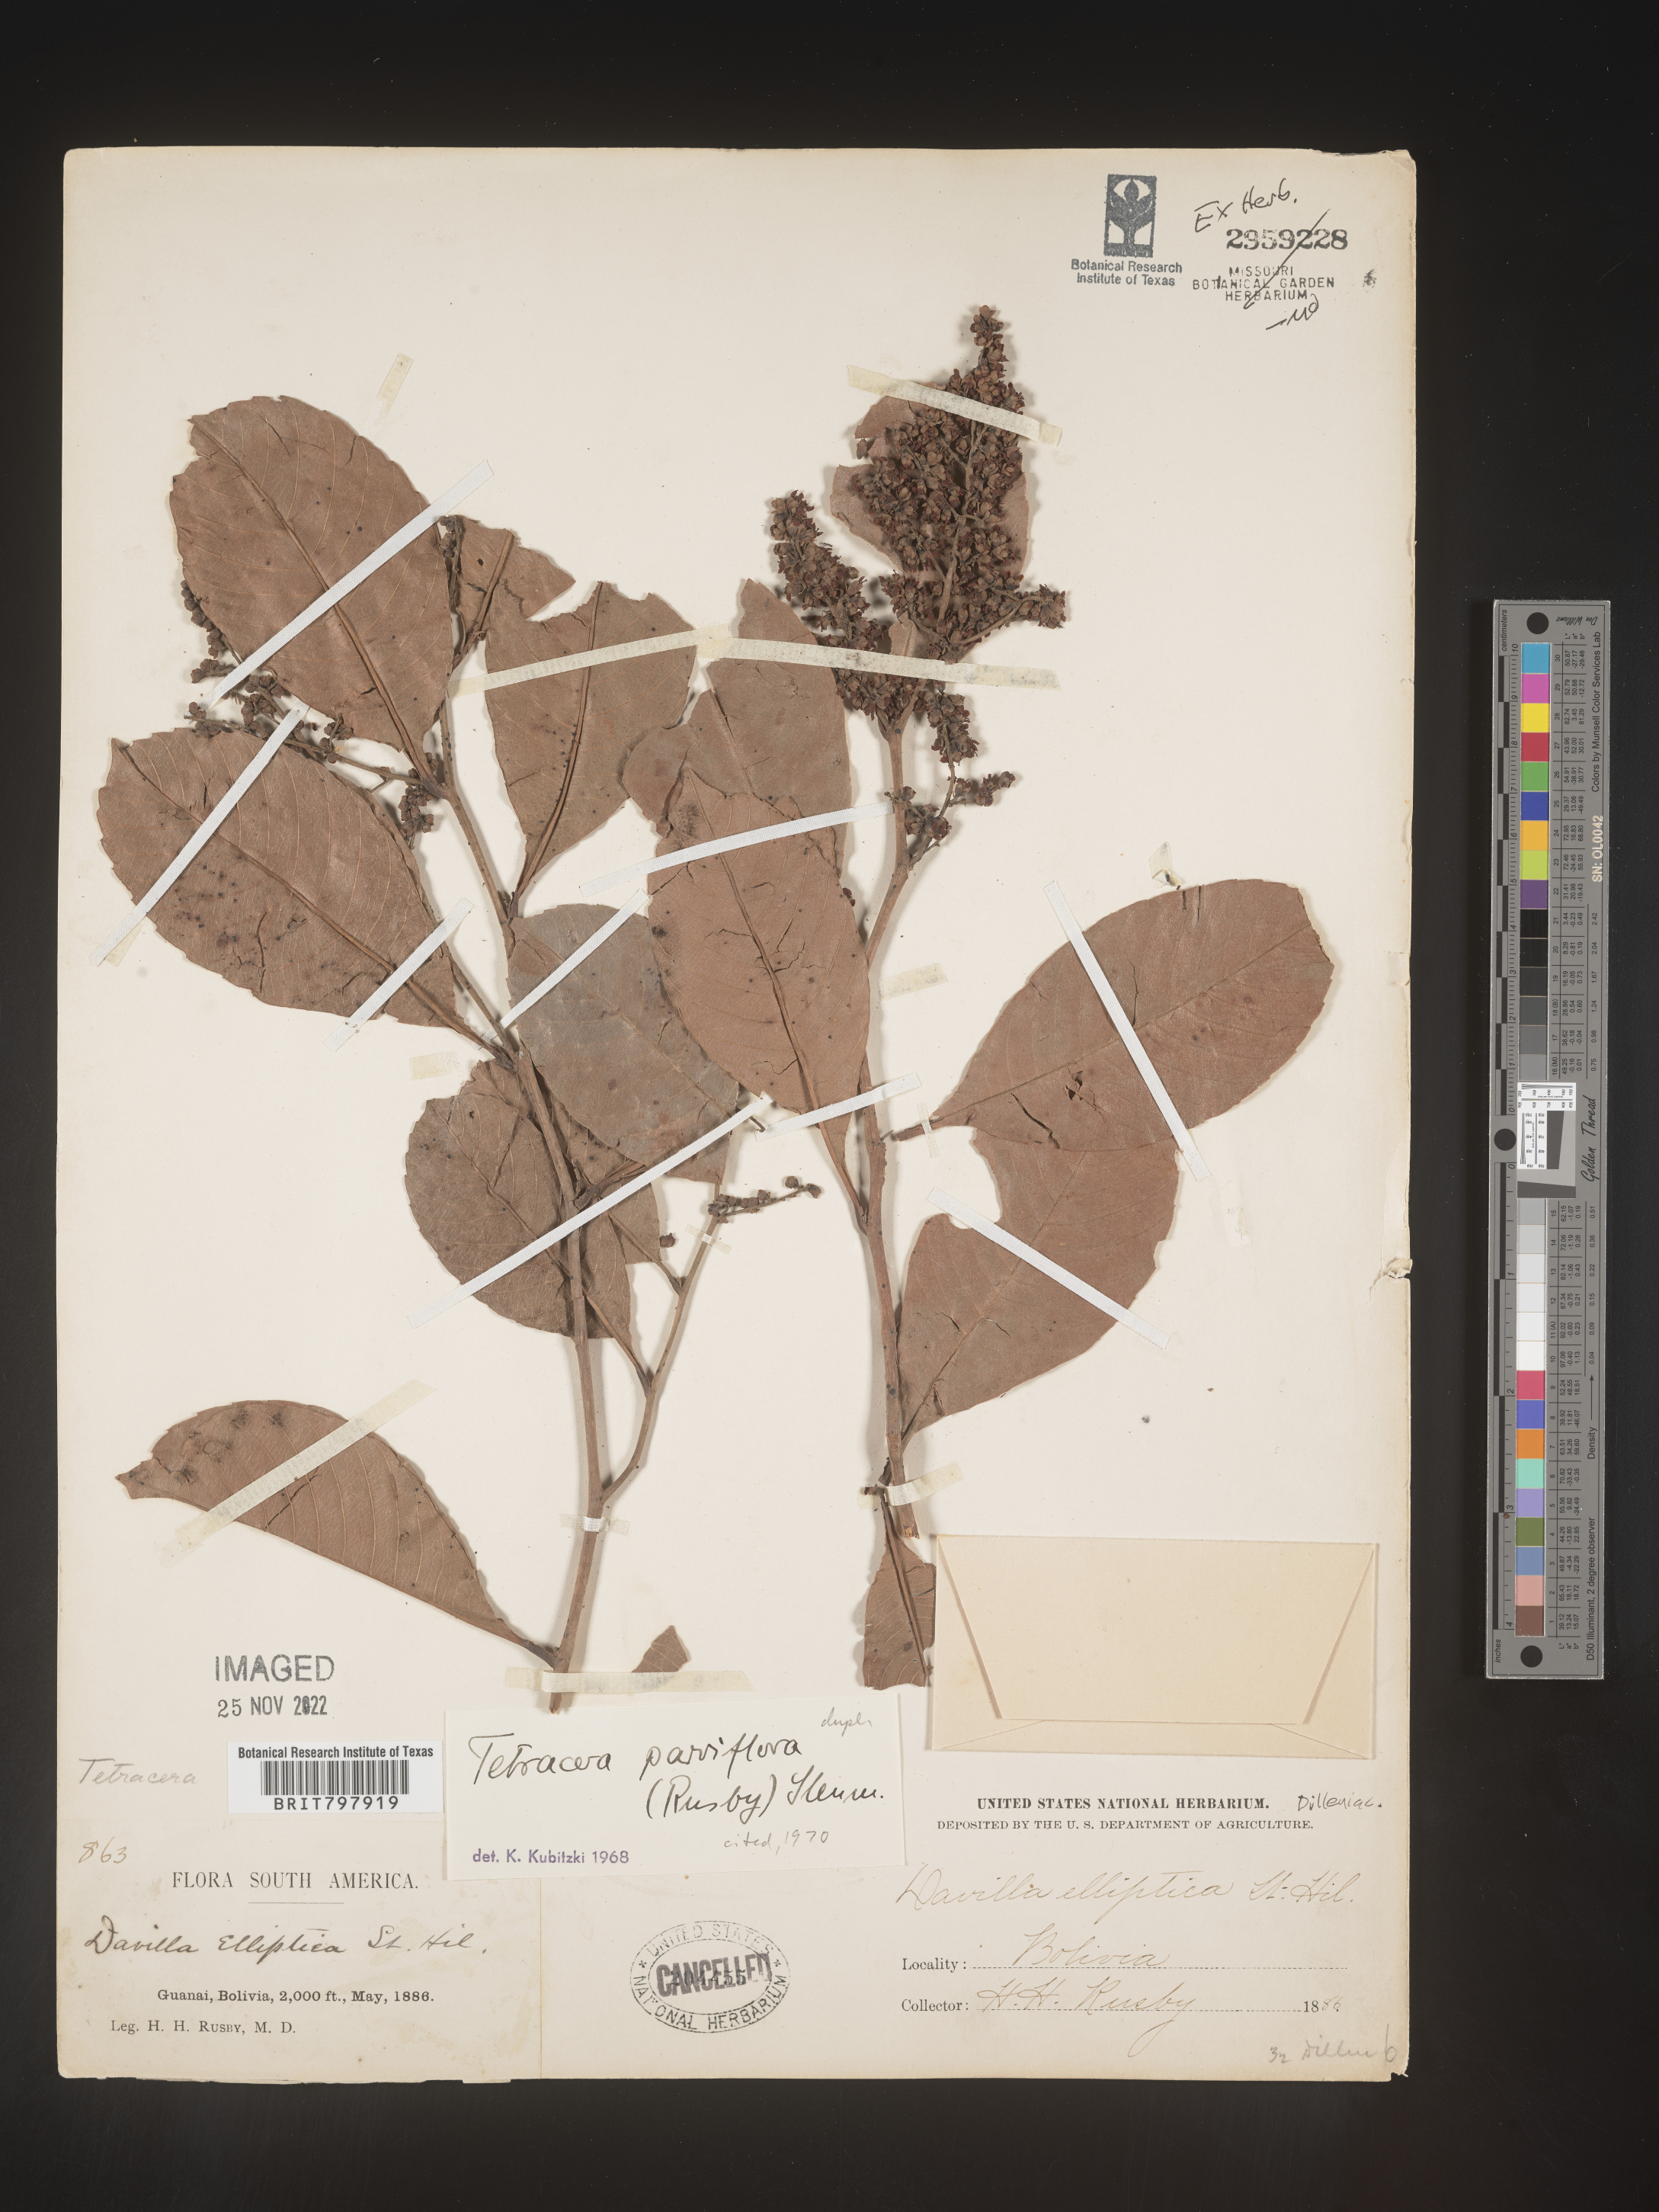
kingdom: Plantae
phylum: Tracheophyta
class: Magnoliopsida
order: Dilleniales
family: Dilleniaceae
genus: Tetracera
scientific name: Tetracera
